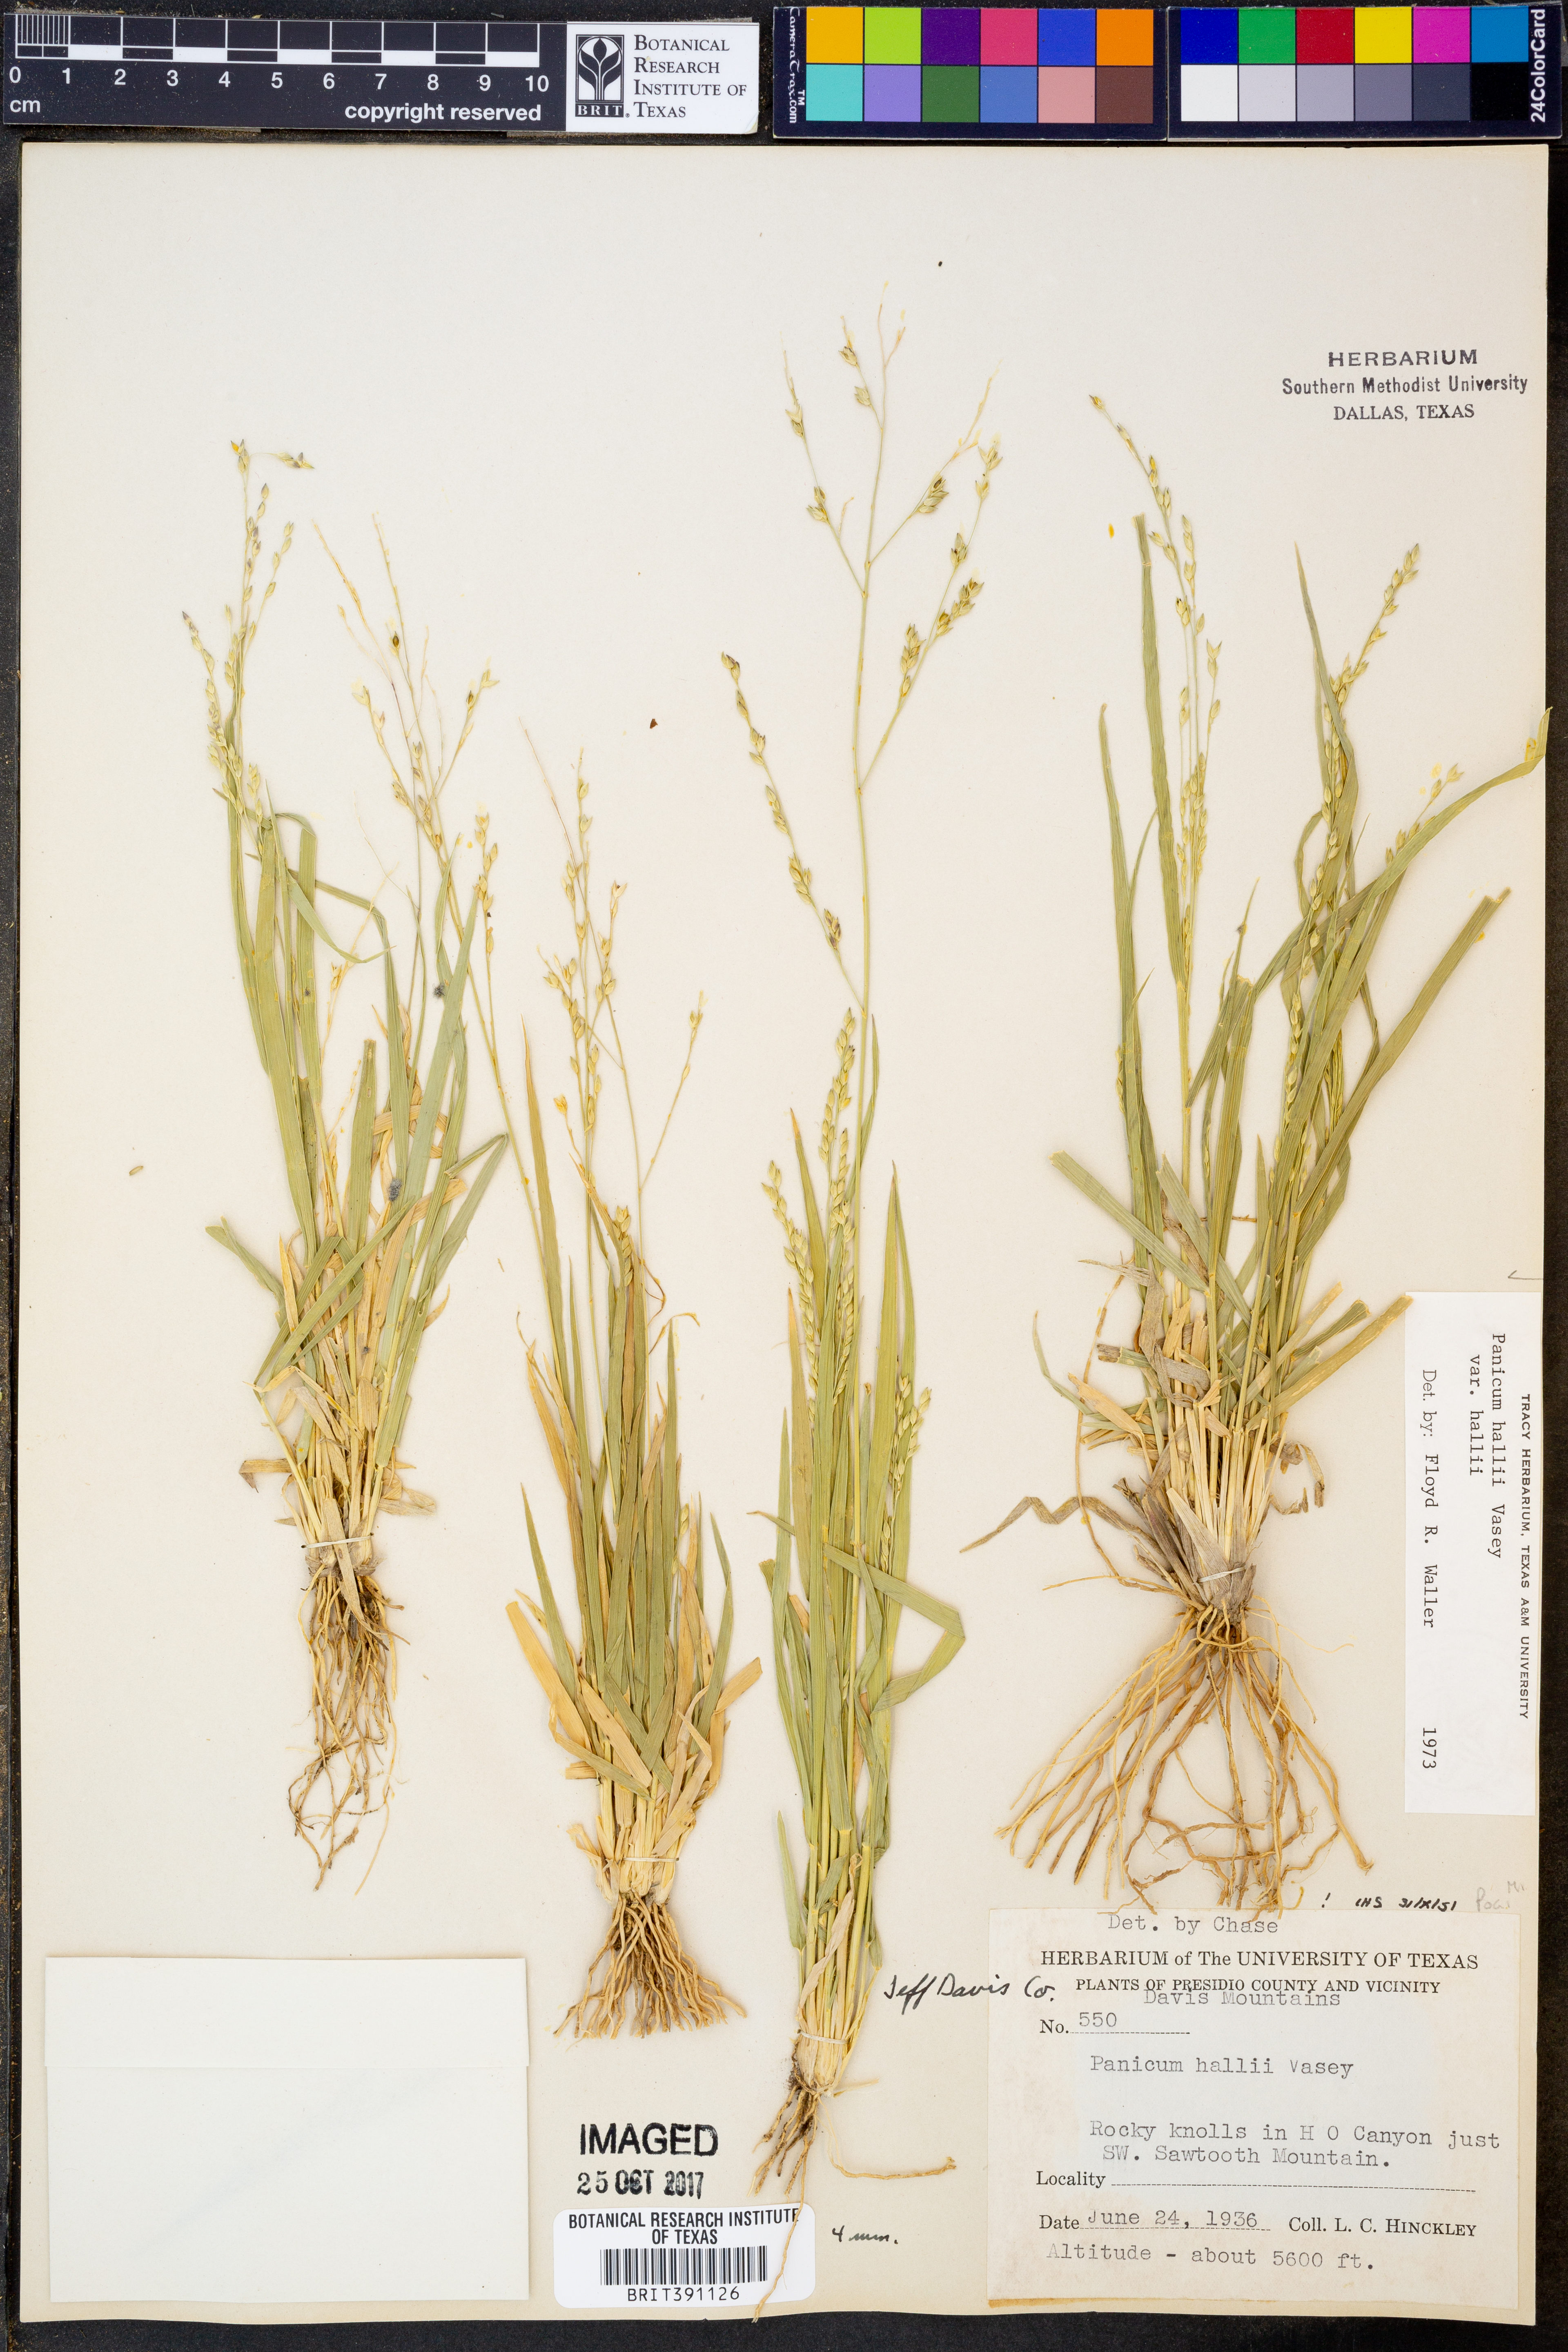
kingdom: Plantae
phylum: Tracheophyta
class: Liliopsida
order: Poales
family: Poaceae
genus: Panicum
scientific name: Panicum hallii
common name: Hall's witchgrass
